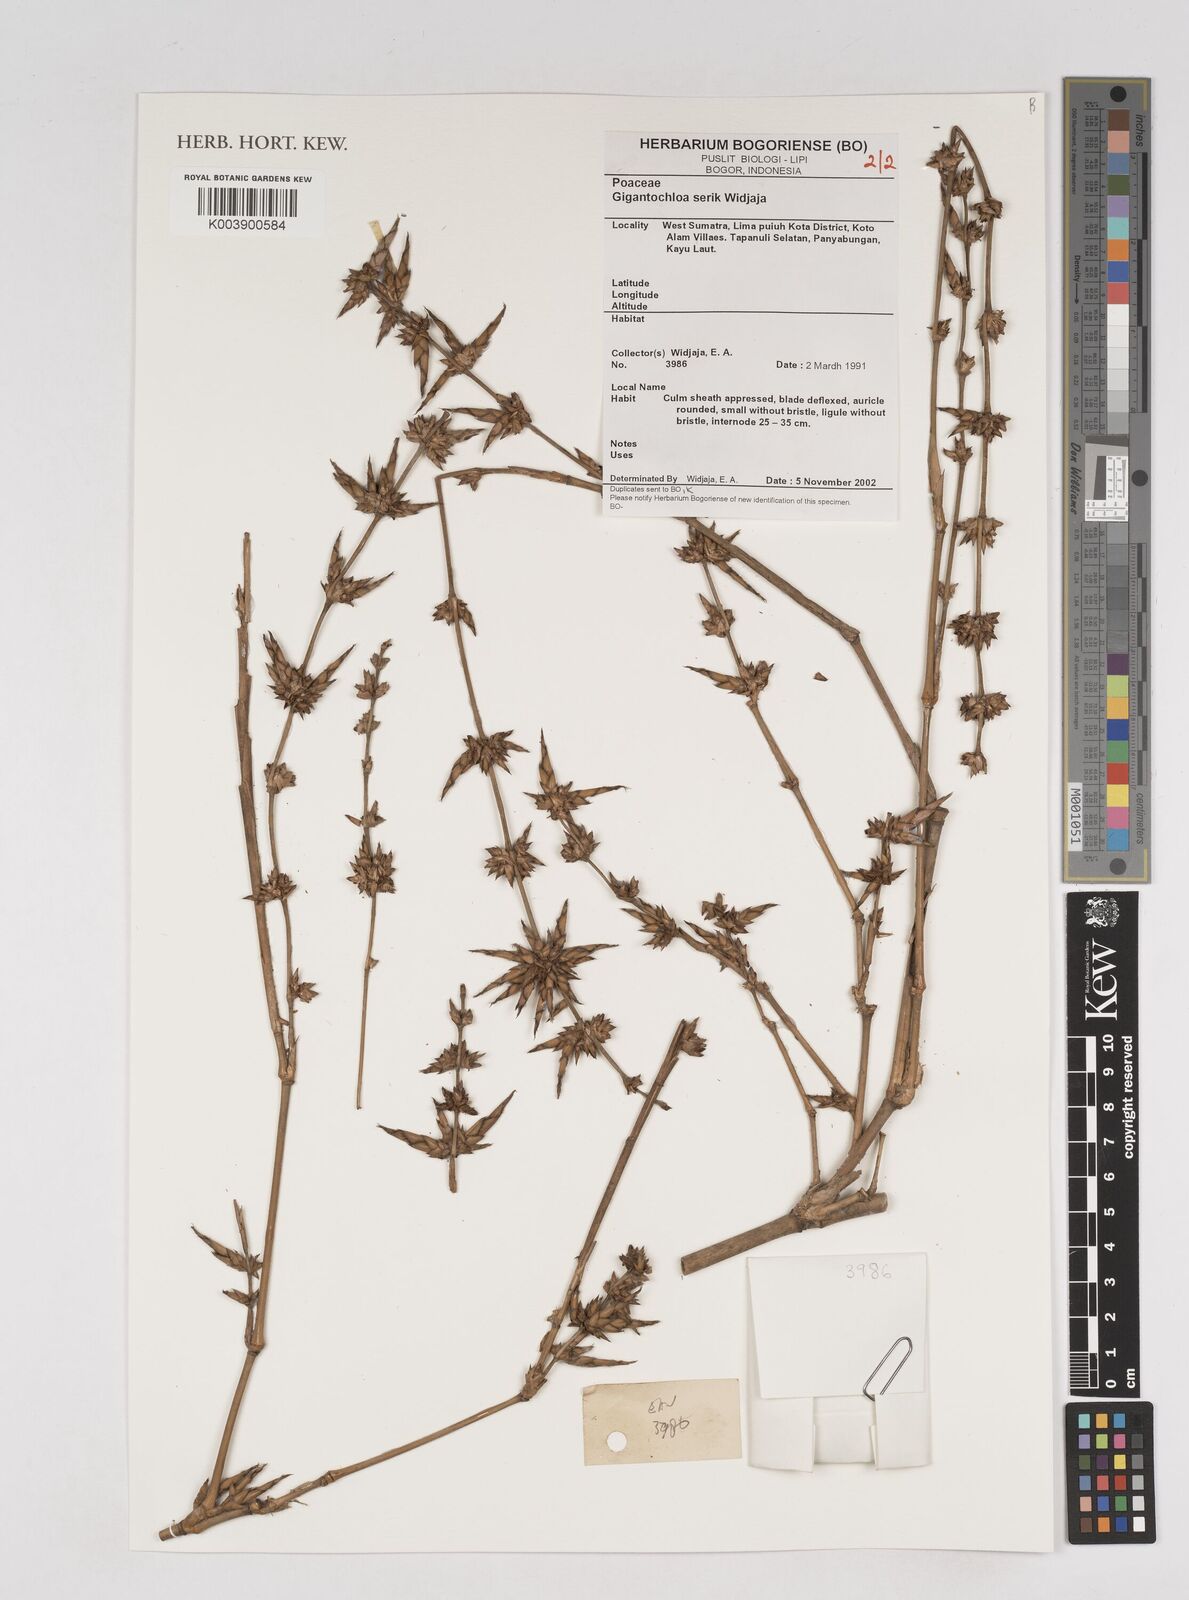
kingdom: Plantae
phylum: Tracheophyta
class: Liliopsida
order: Poales
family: Poaceae
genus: Gigantochloa
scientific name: Gigantochloa serik
